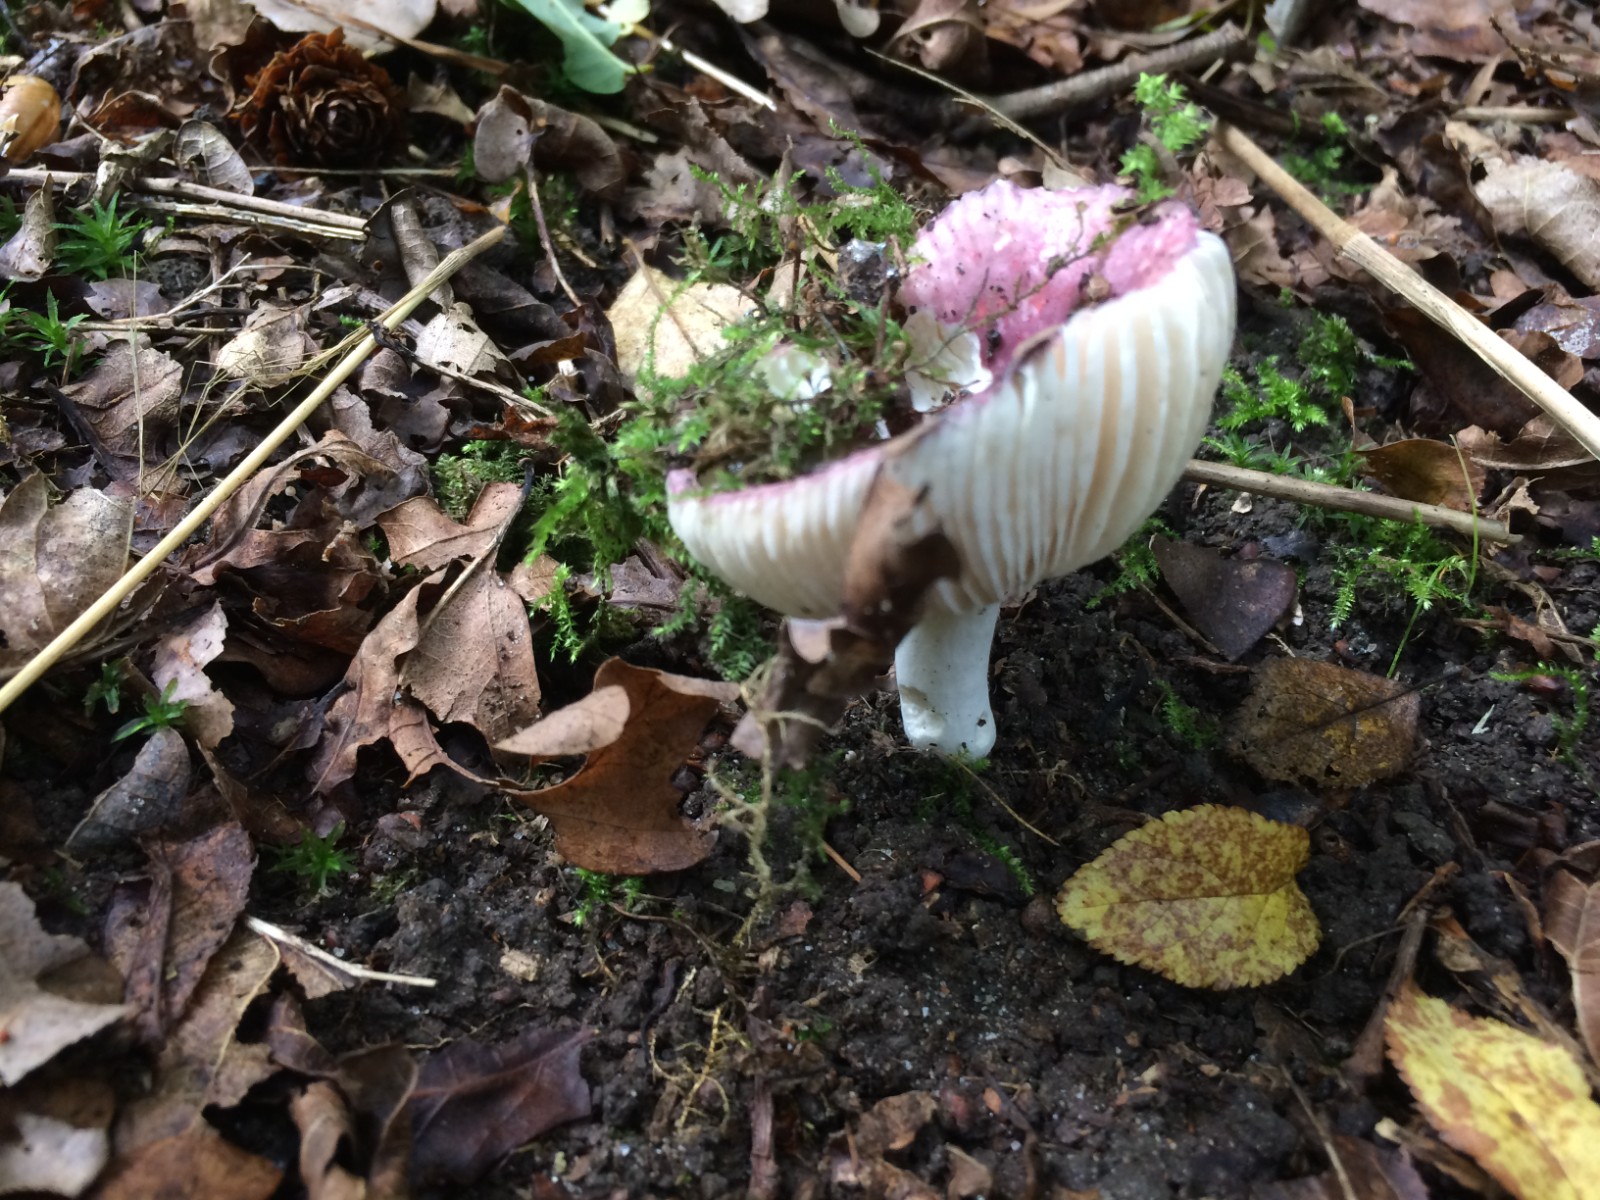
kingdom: Fungi
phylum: Basidiomycota
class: Agaricomycetes
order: Russulales
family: Russulaceae
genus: Russula
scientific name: Russula
